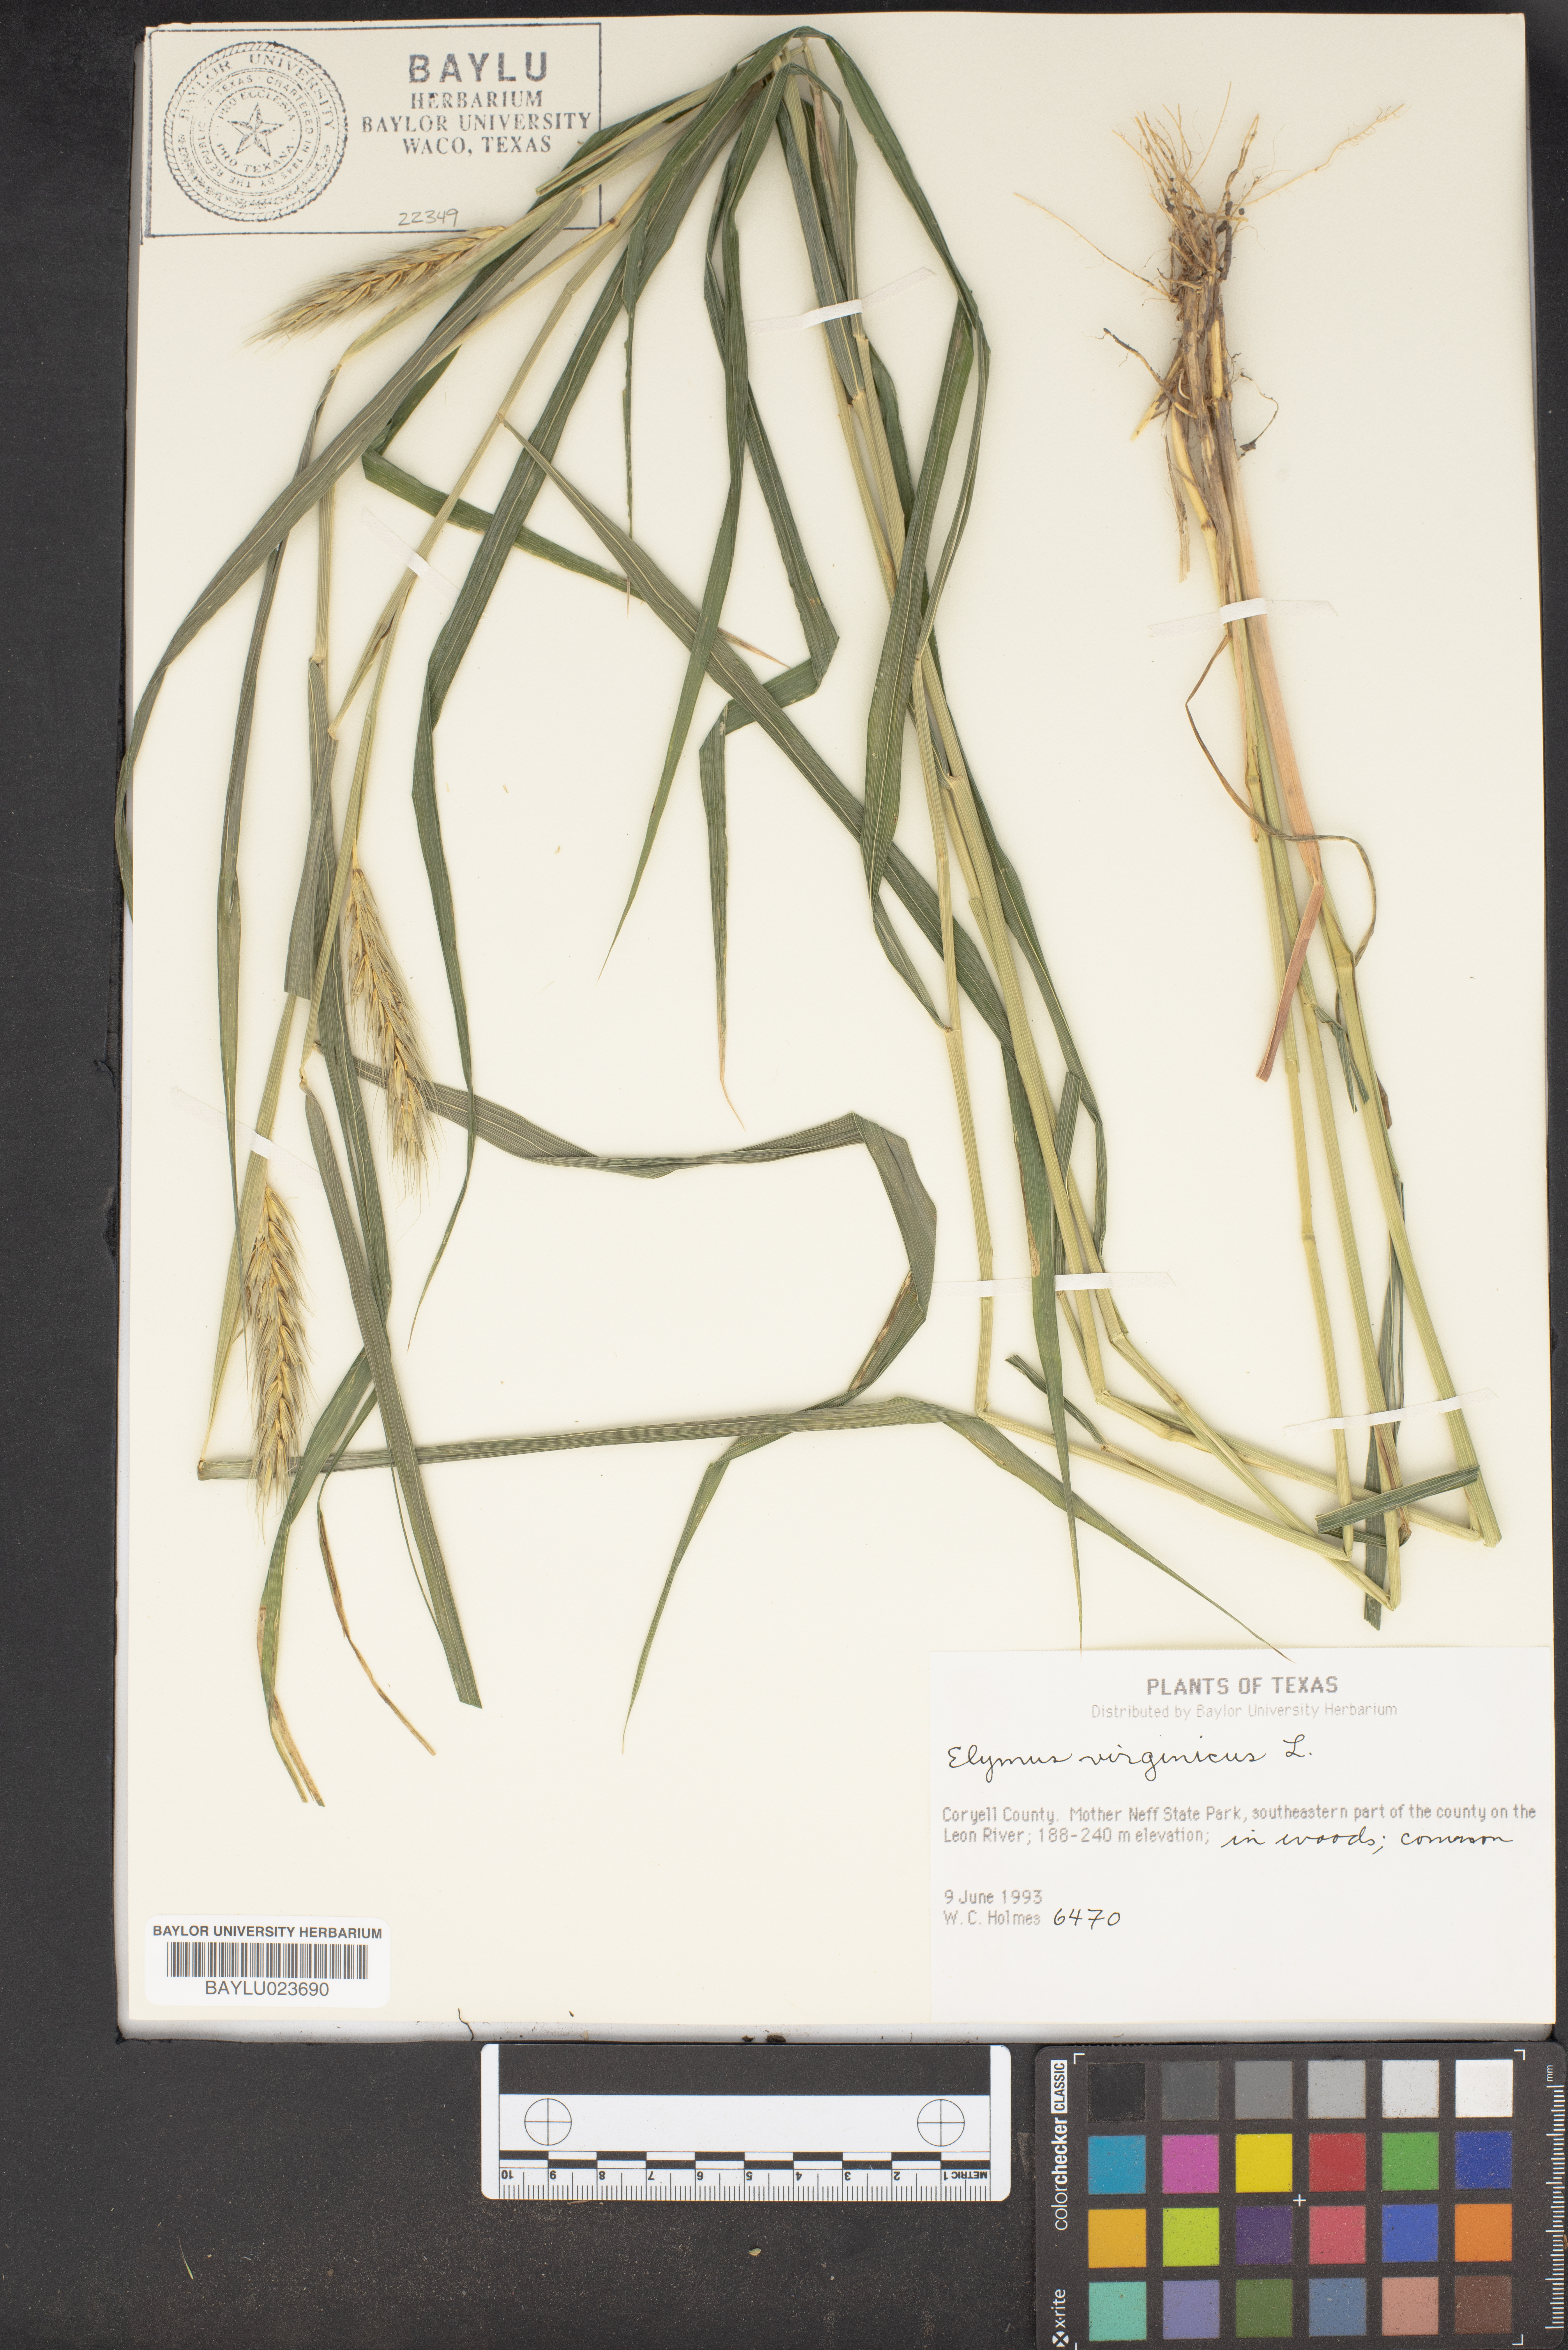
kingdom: Plantae
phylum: Tracheophyta
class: Liliopsida
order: Poales
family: Poaceae
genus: Elymus
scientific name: Elymus virginicus
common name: Common eastern wildrye
